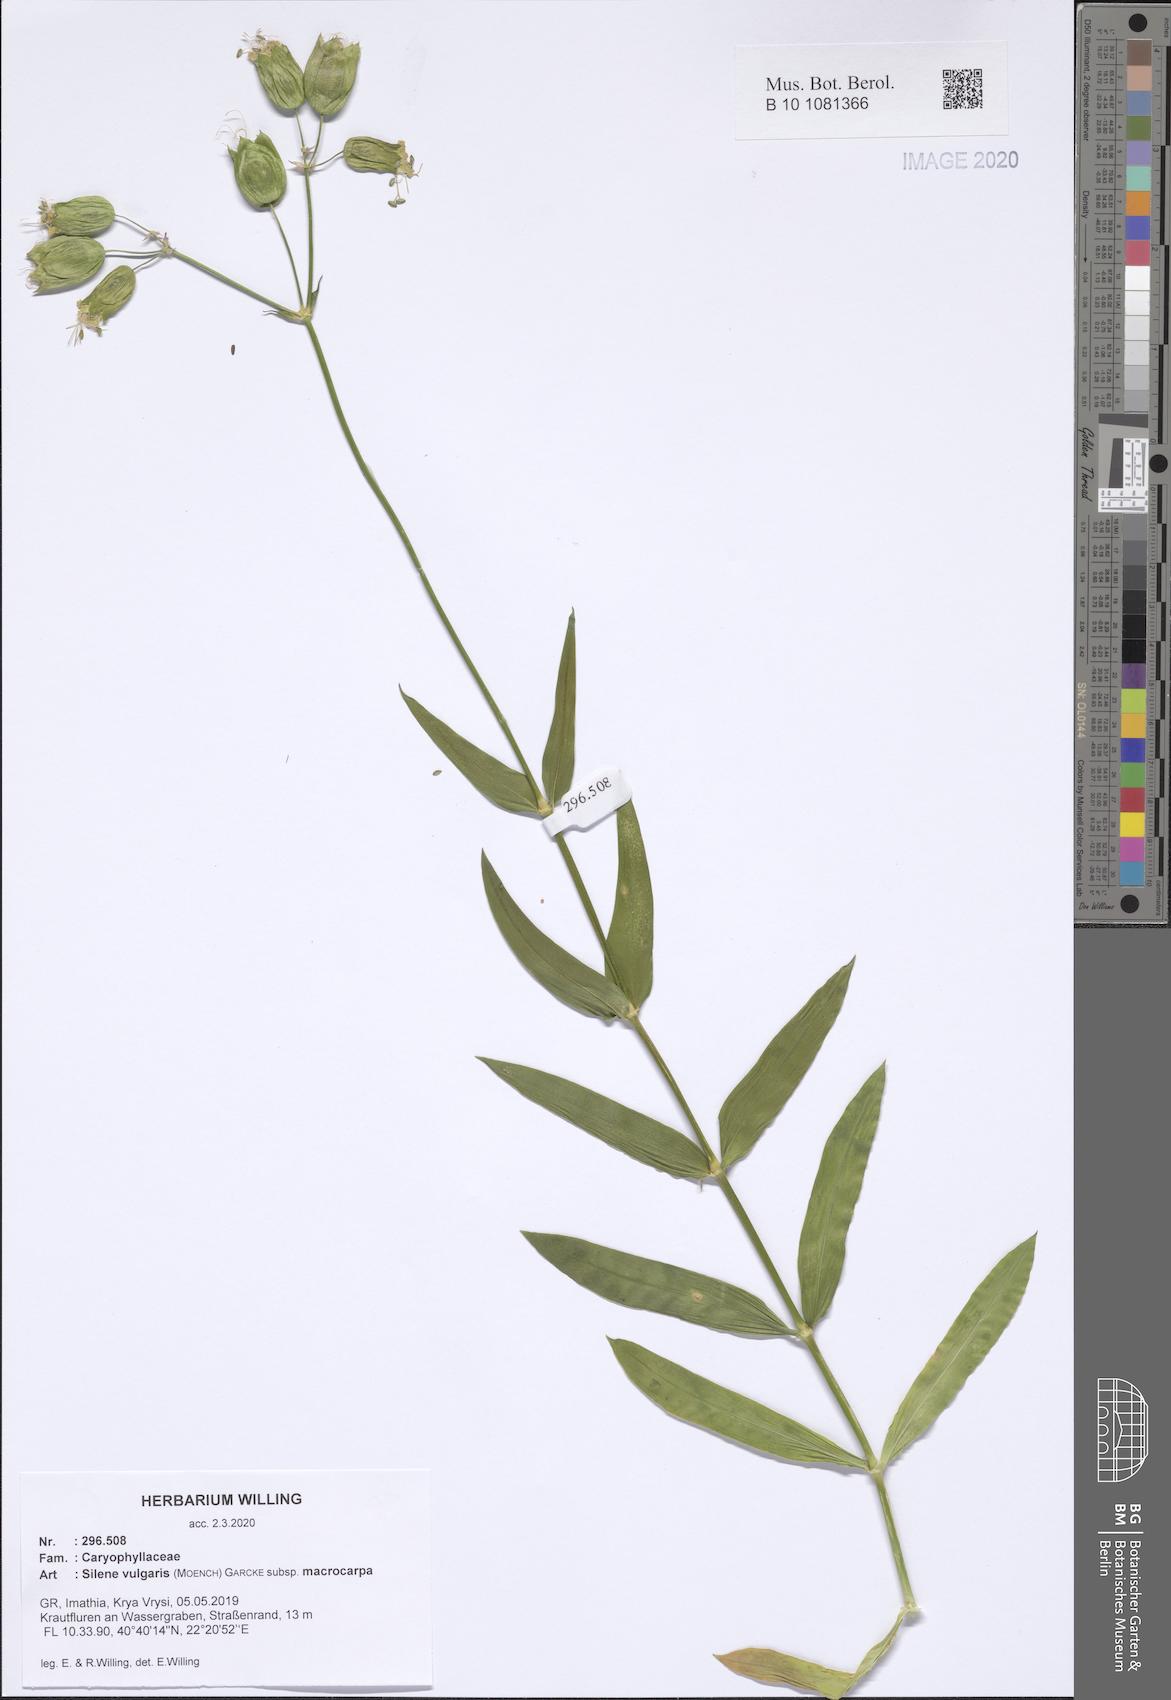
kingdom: Plantae
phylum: Tracheophyta
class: Magnoliopsida
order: Caryophyllales
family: Caryophyllaceae
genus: Silene
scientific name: Silene vulgaris
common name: Bladder campion
